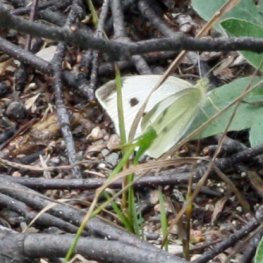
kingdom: Animalia
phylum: Arthropoda
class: Insecta
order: Lepidoptera
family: Pieridae
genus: Pieris
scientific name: Pieris rapae
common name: Cabbage White
